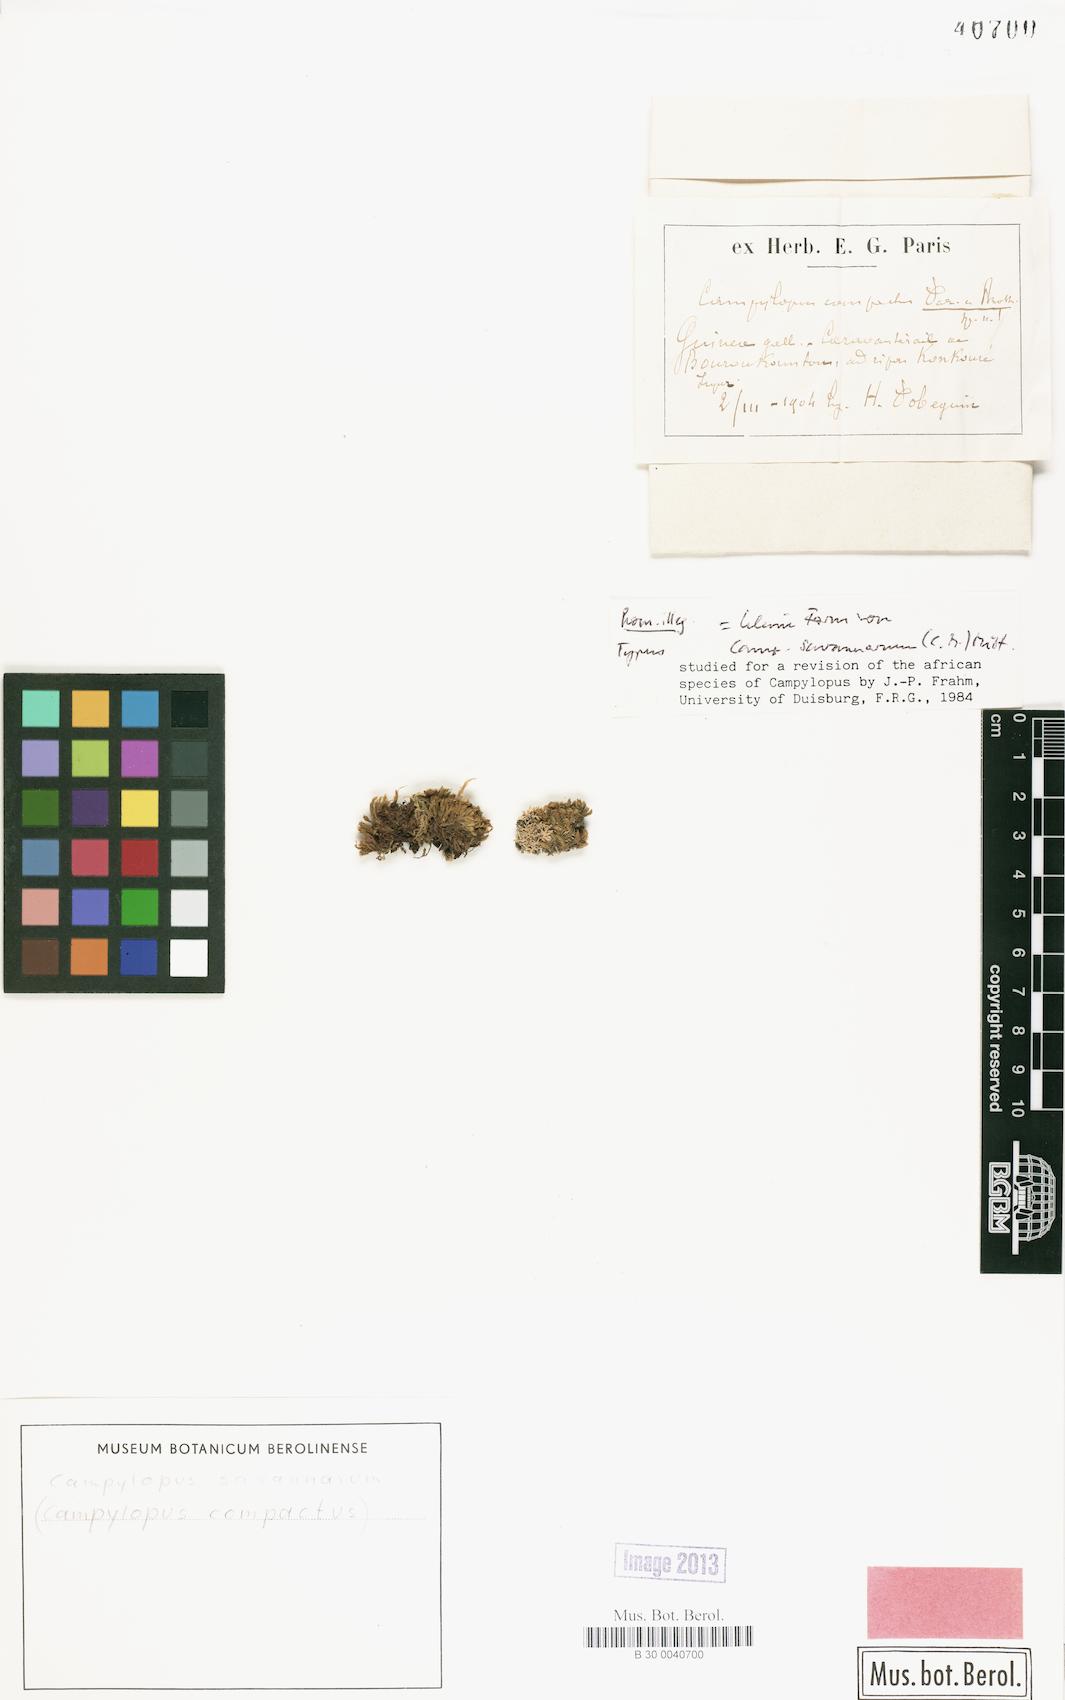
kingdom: Plantae
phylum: Bryophyta
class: Bryopsida
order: Dicranales
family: Leucobryaceae
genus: Campylopus
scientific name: Campylopus savannarum
